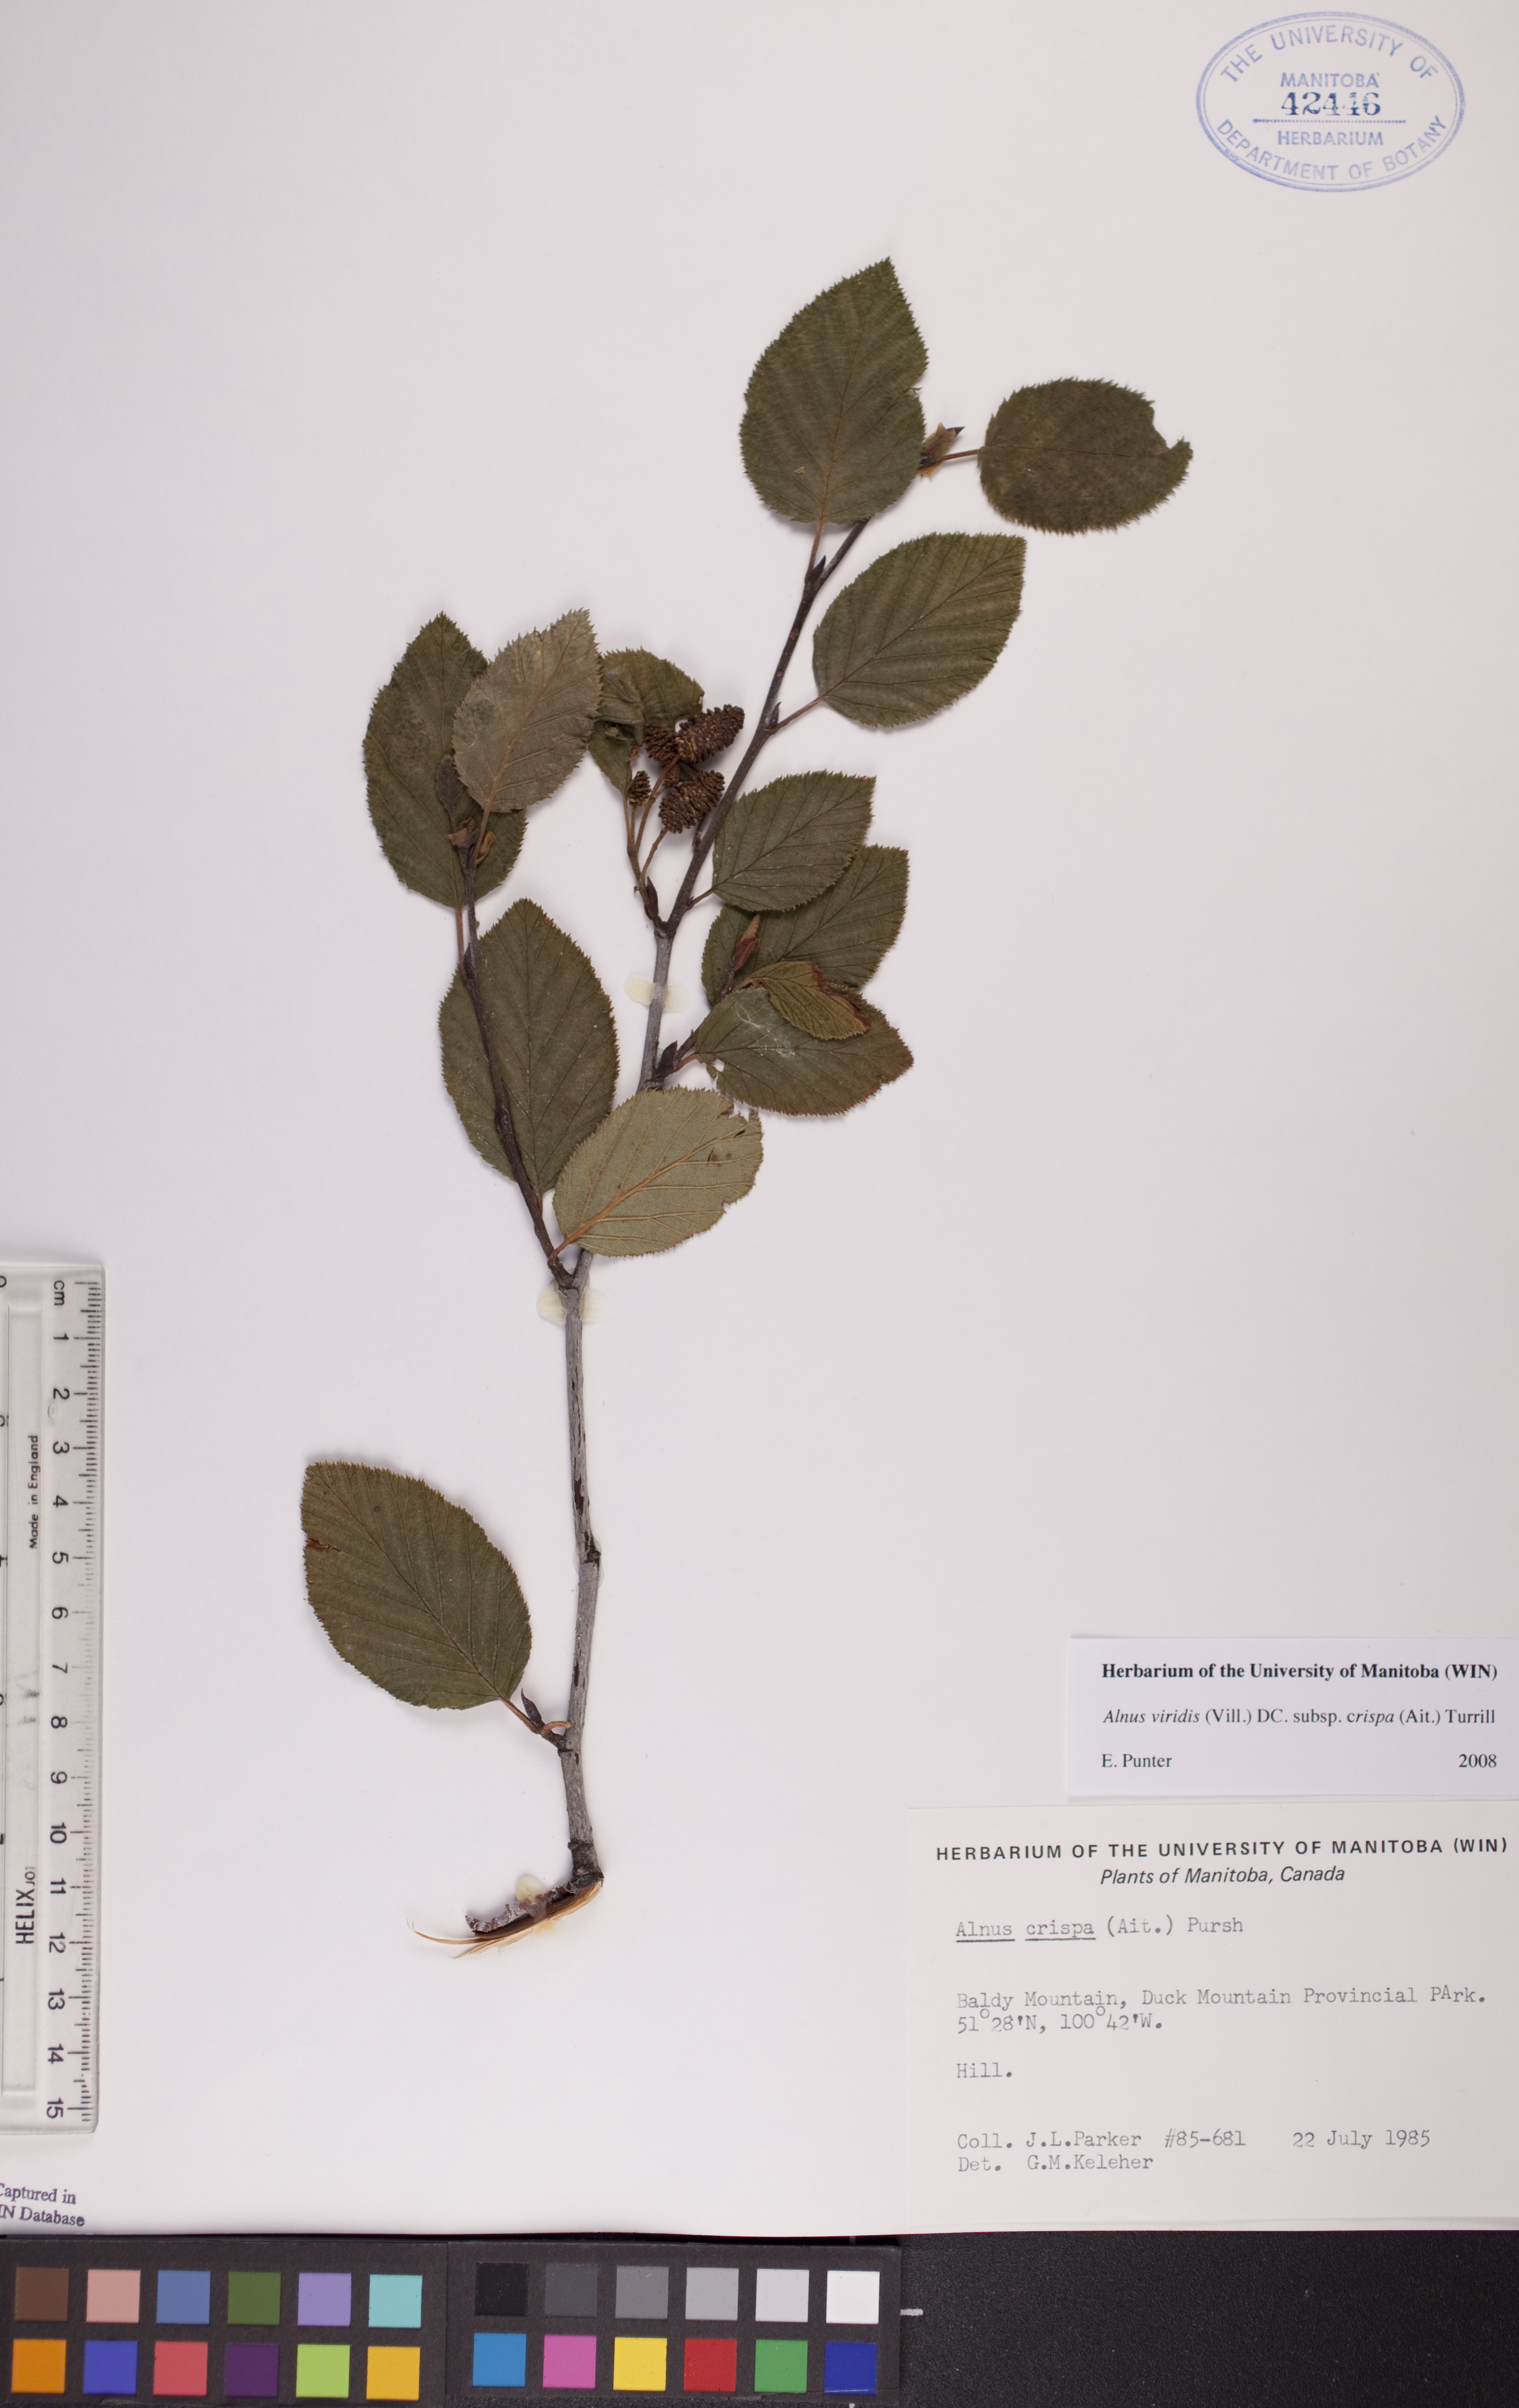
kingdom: Plantae
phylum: Tracheophyta
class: Magnoliopsida
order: Fagales
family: Betulaceae
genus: Alnus
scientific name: Alnus alnobetula
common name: Green alder
